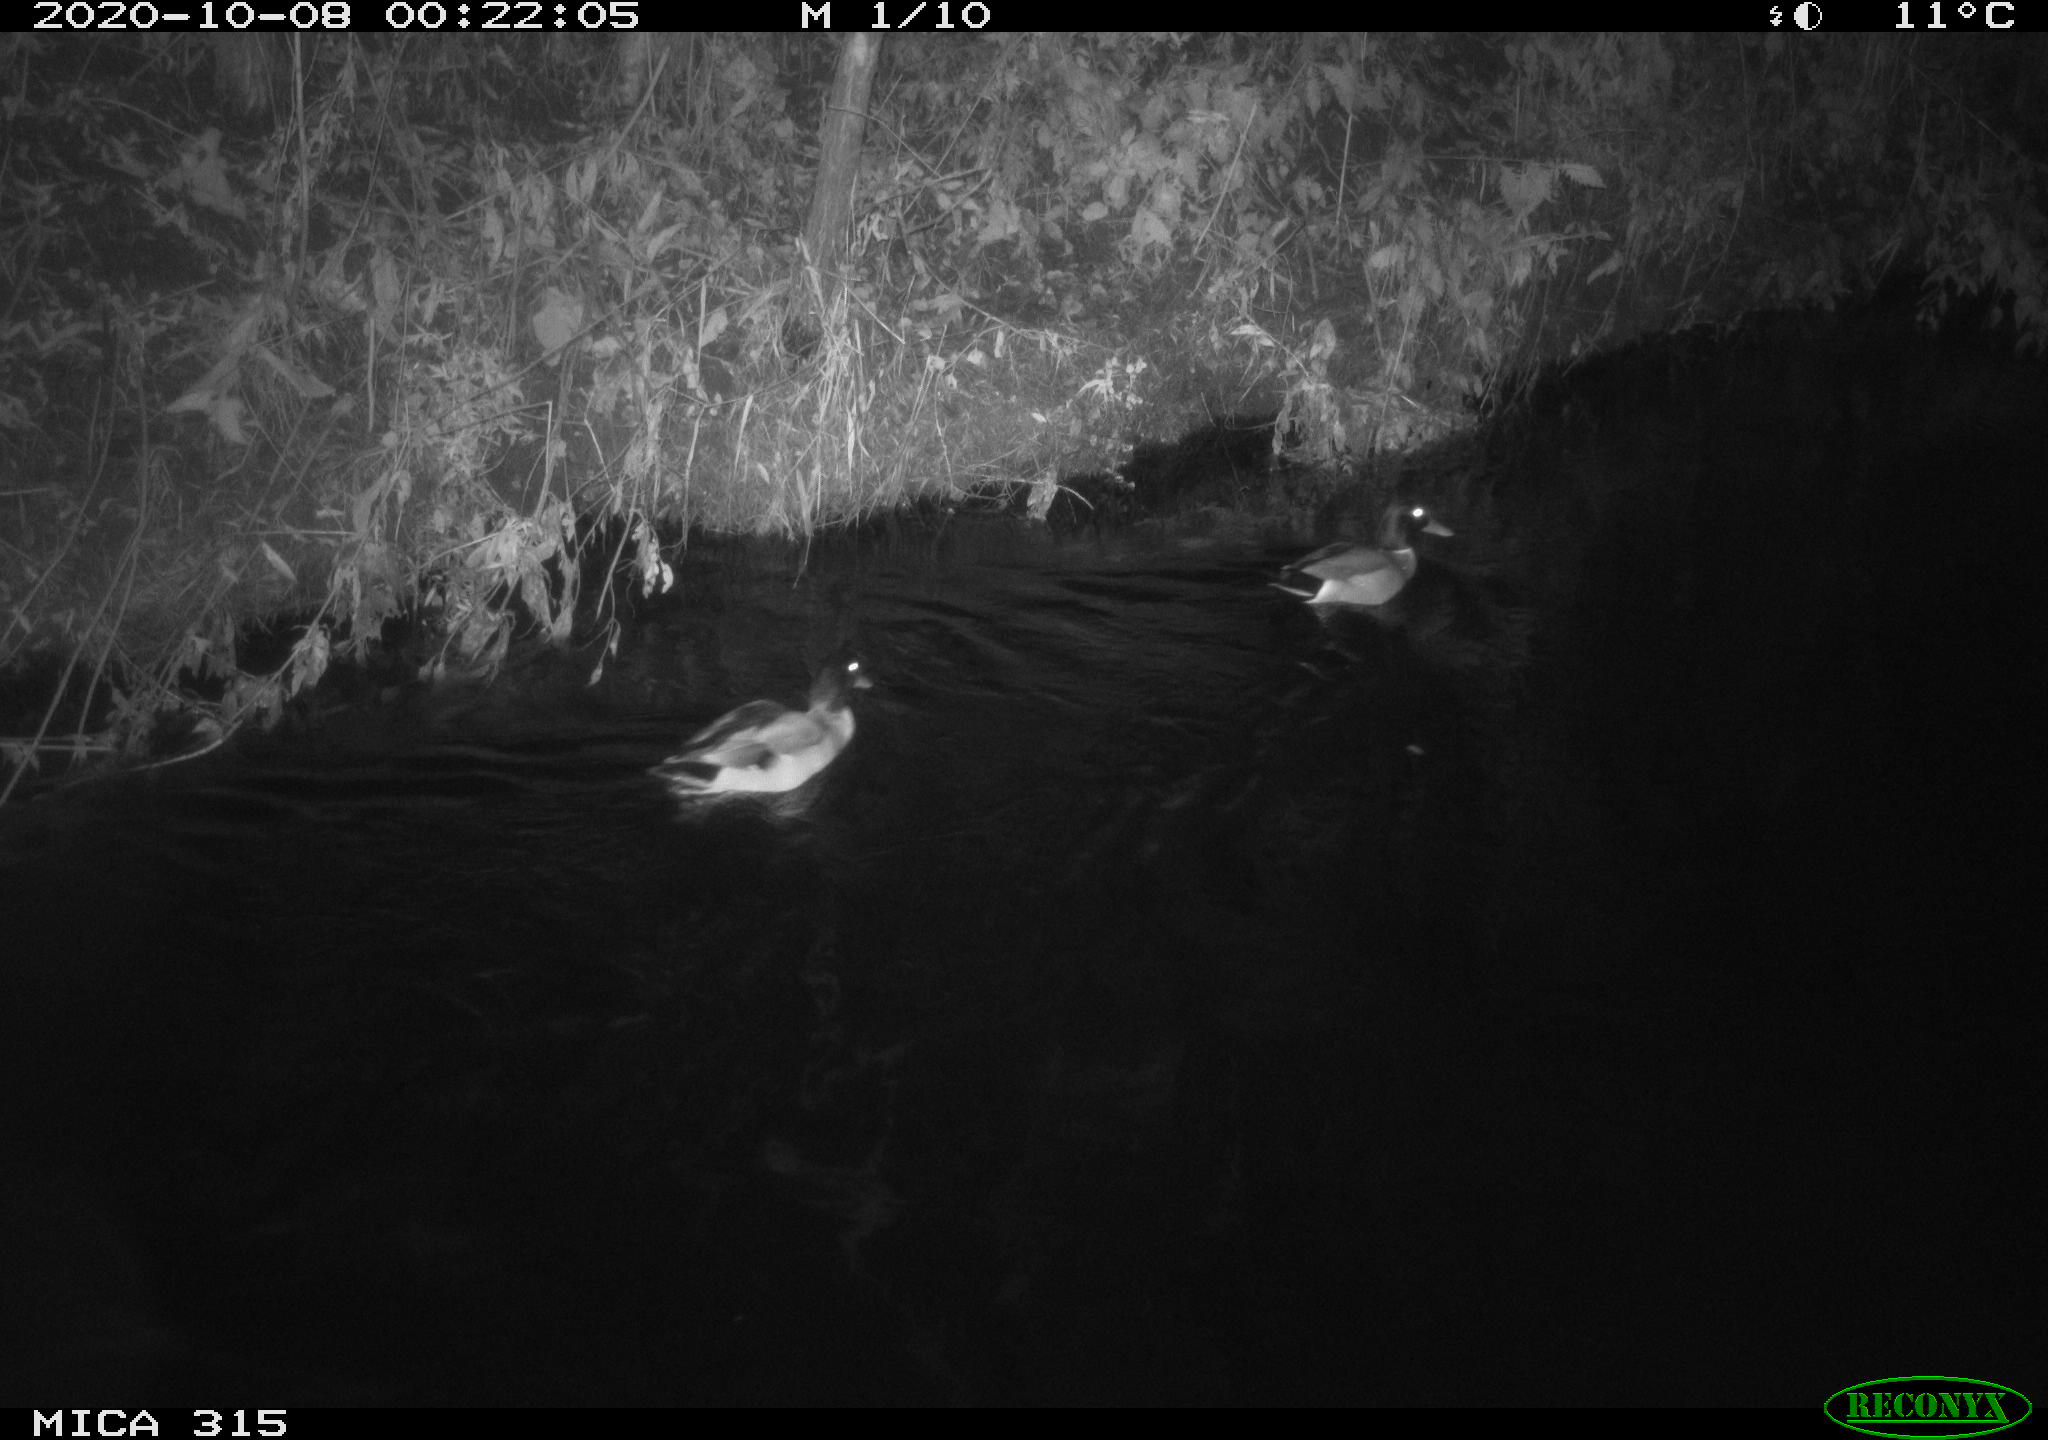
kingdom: Animalia
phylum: Chordata
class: Aves
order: Anseriformes
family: Anatidae
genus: Anas
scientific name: Anas platyrhynchos
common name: Mallard
